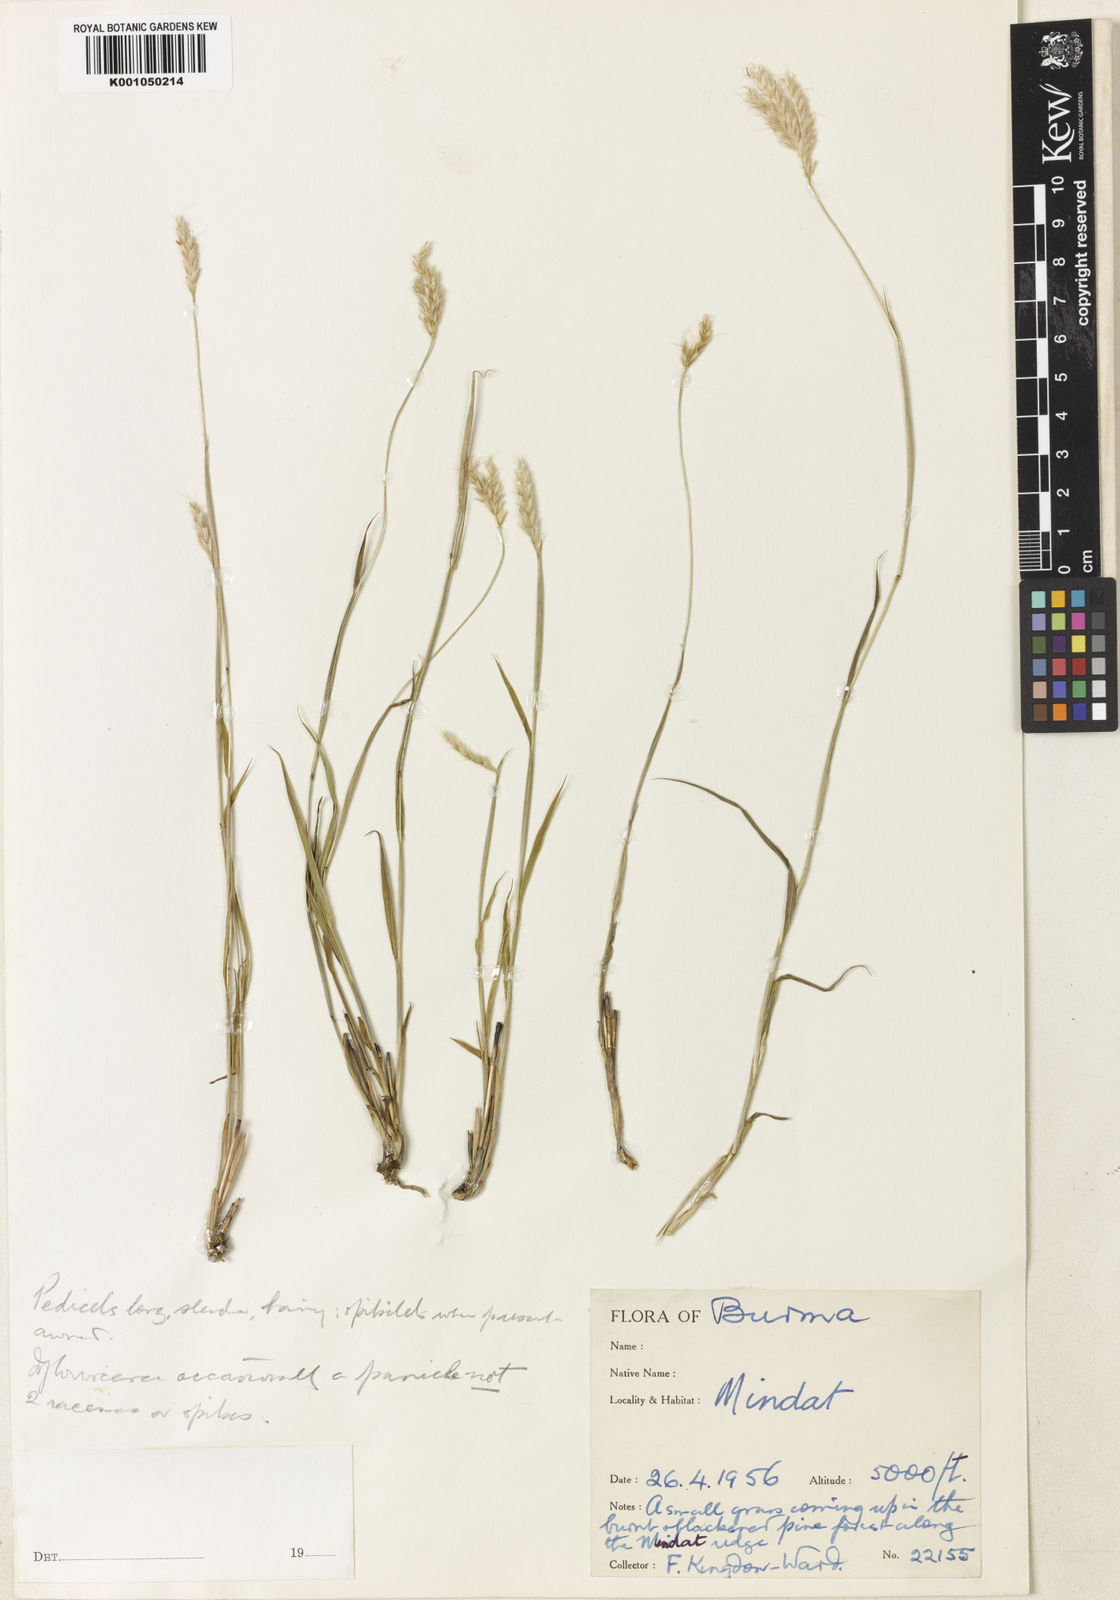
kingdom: Plantae
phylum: Tracheophyta
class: Liliopsida
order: Poales
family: Poaceae
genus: Apocopis
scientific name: Apocopis anomalus
